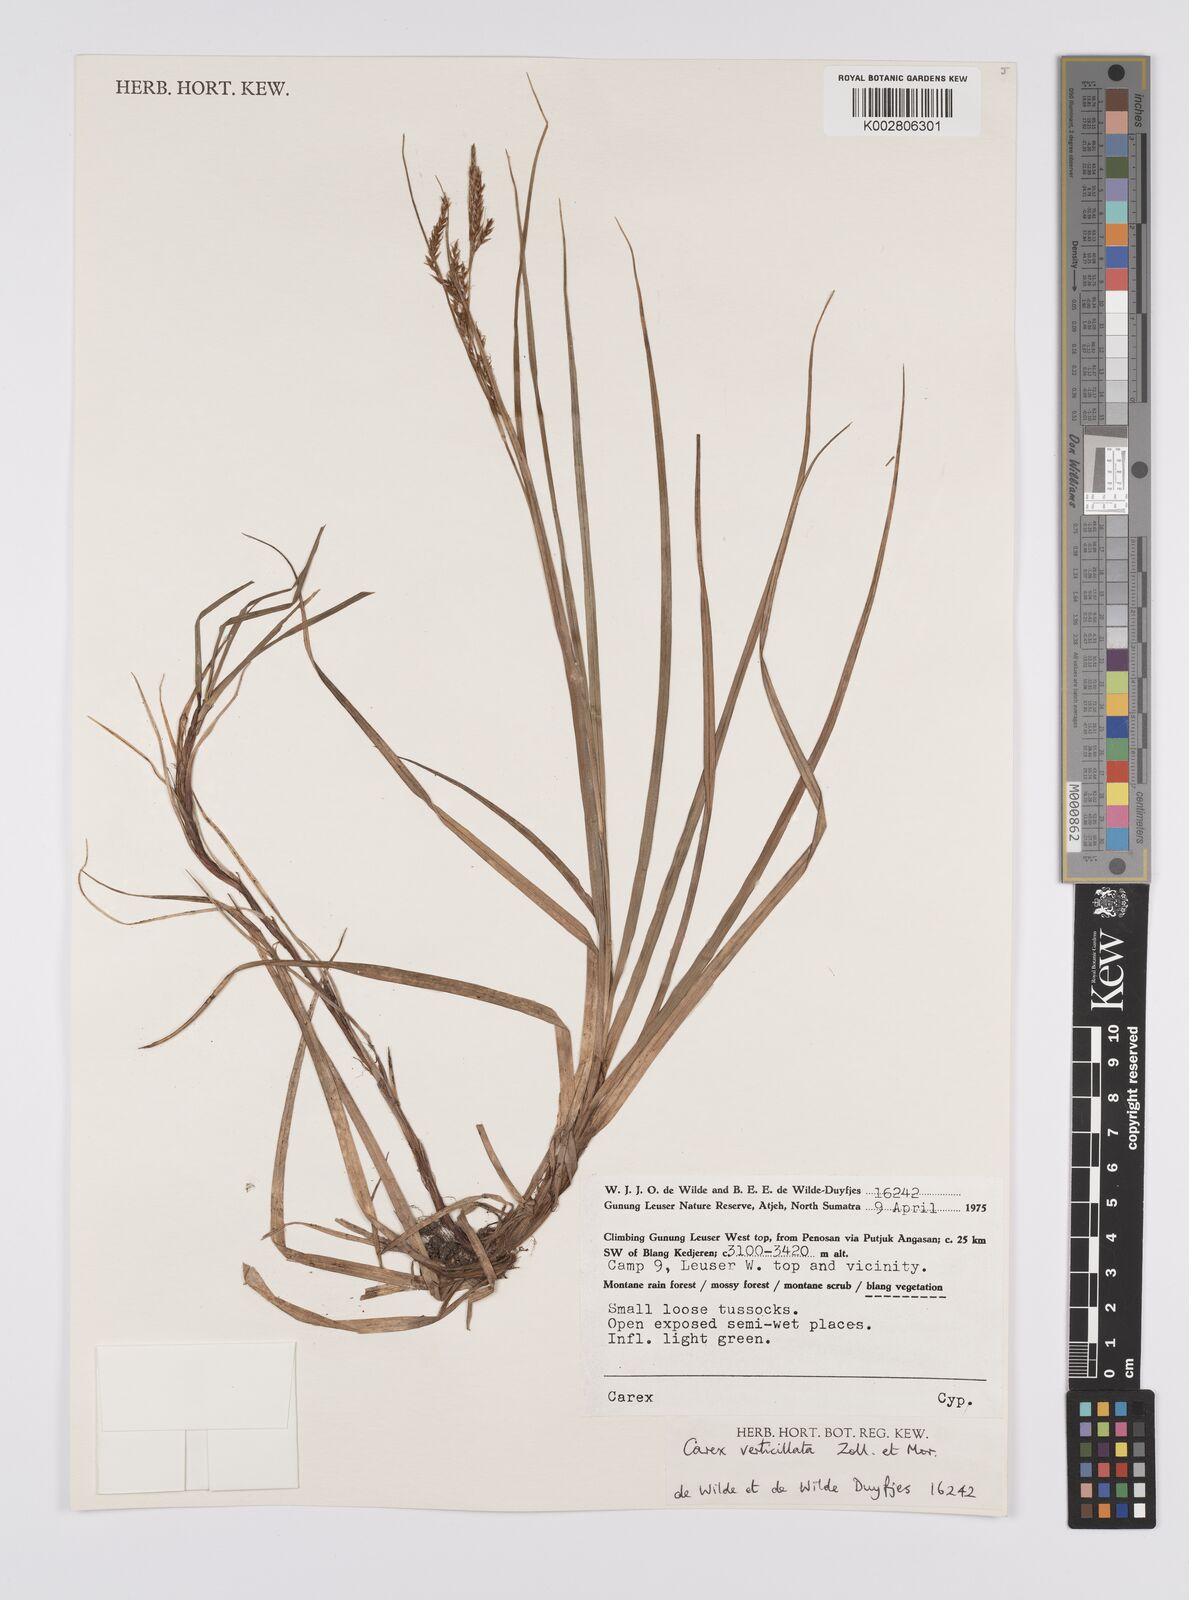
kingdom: Plantae
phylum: Tracheophyta
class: Liliopsida
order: Poales
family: Cyperaceae
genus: Carex
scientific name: Carex verticillata
